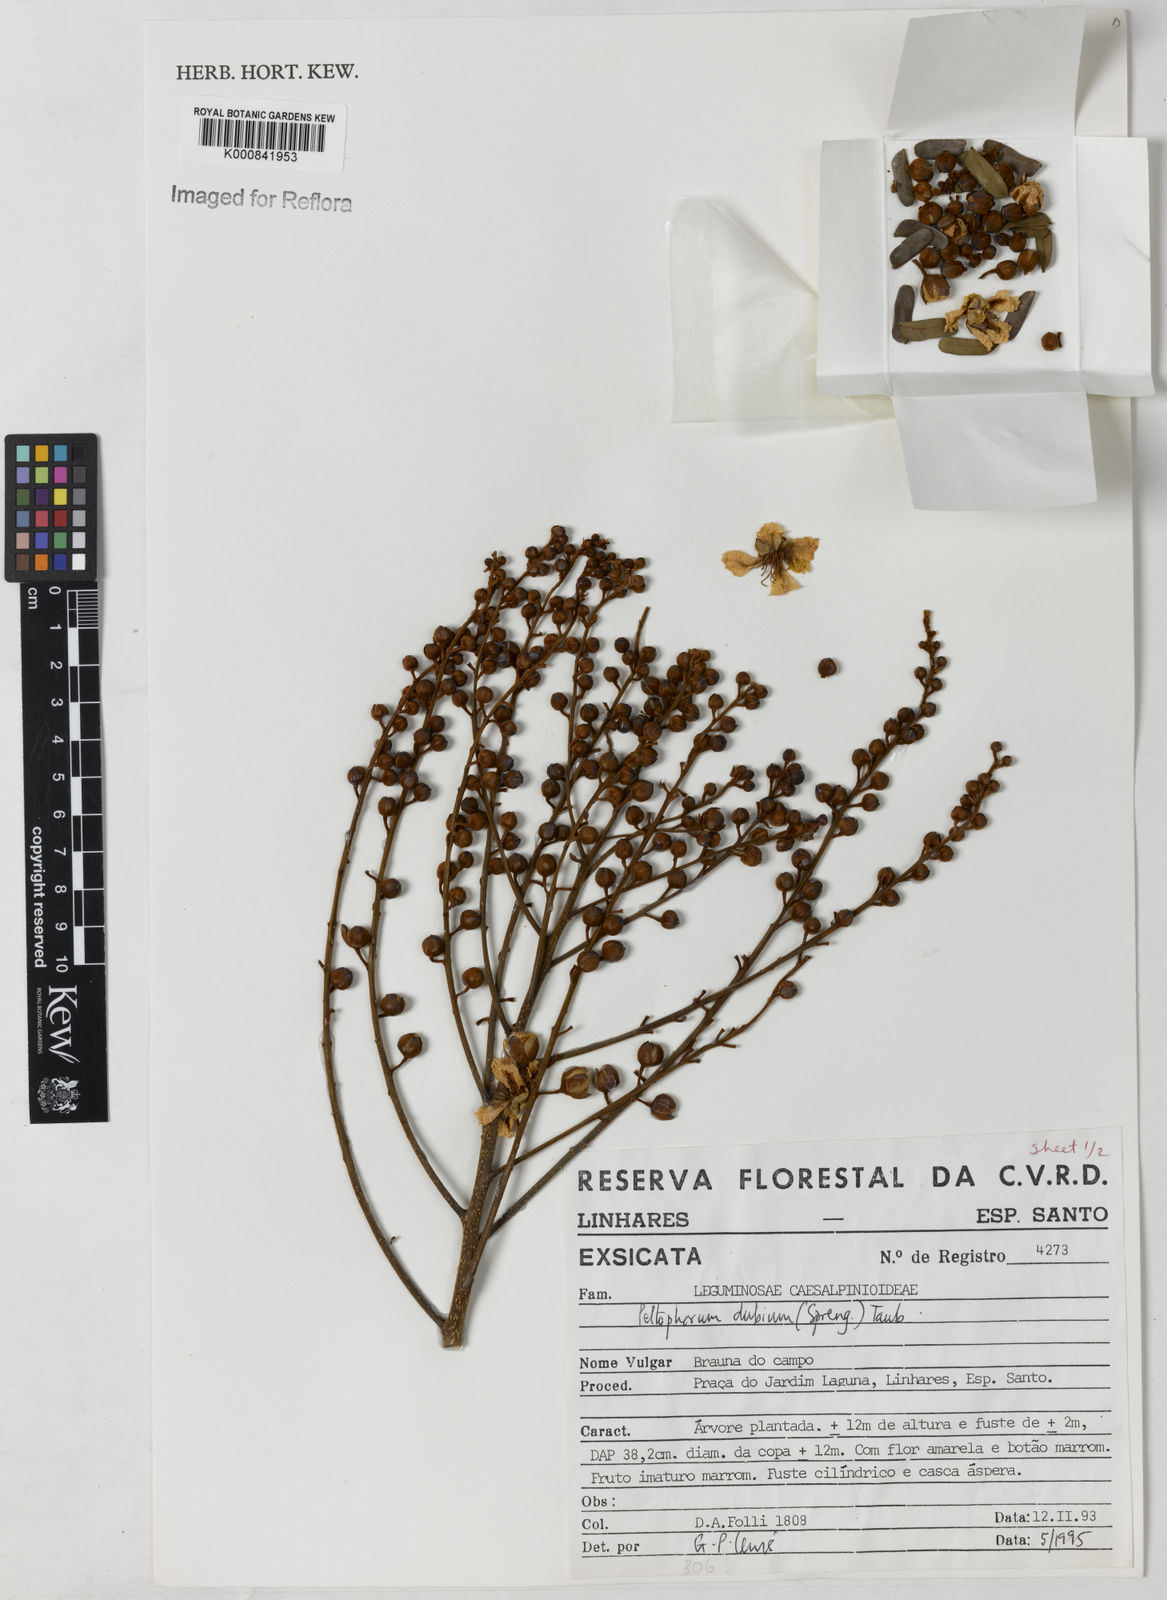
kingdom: Plantae
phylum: Tracheophyta
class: Magnoliopsida
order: Fabales
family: Fabaceae
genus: Peltophorum
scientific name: Peltophorum dubium
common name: Horsebush
